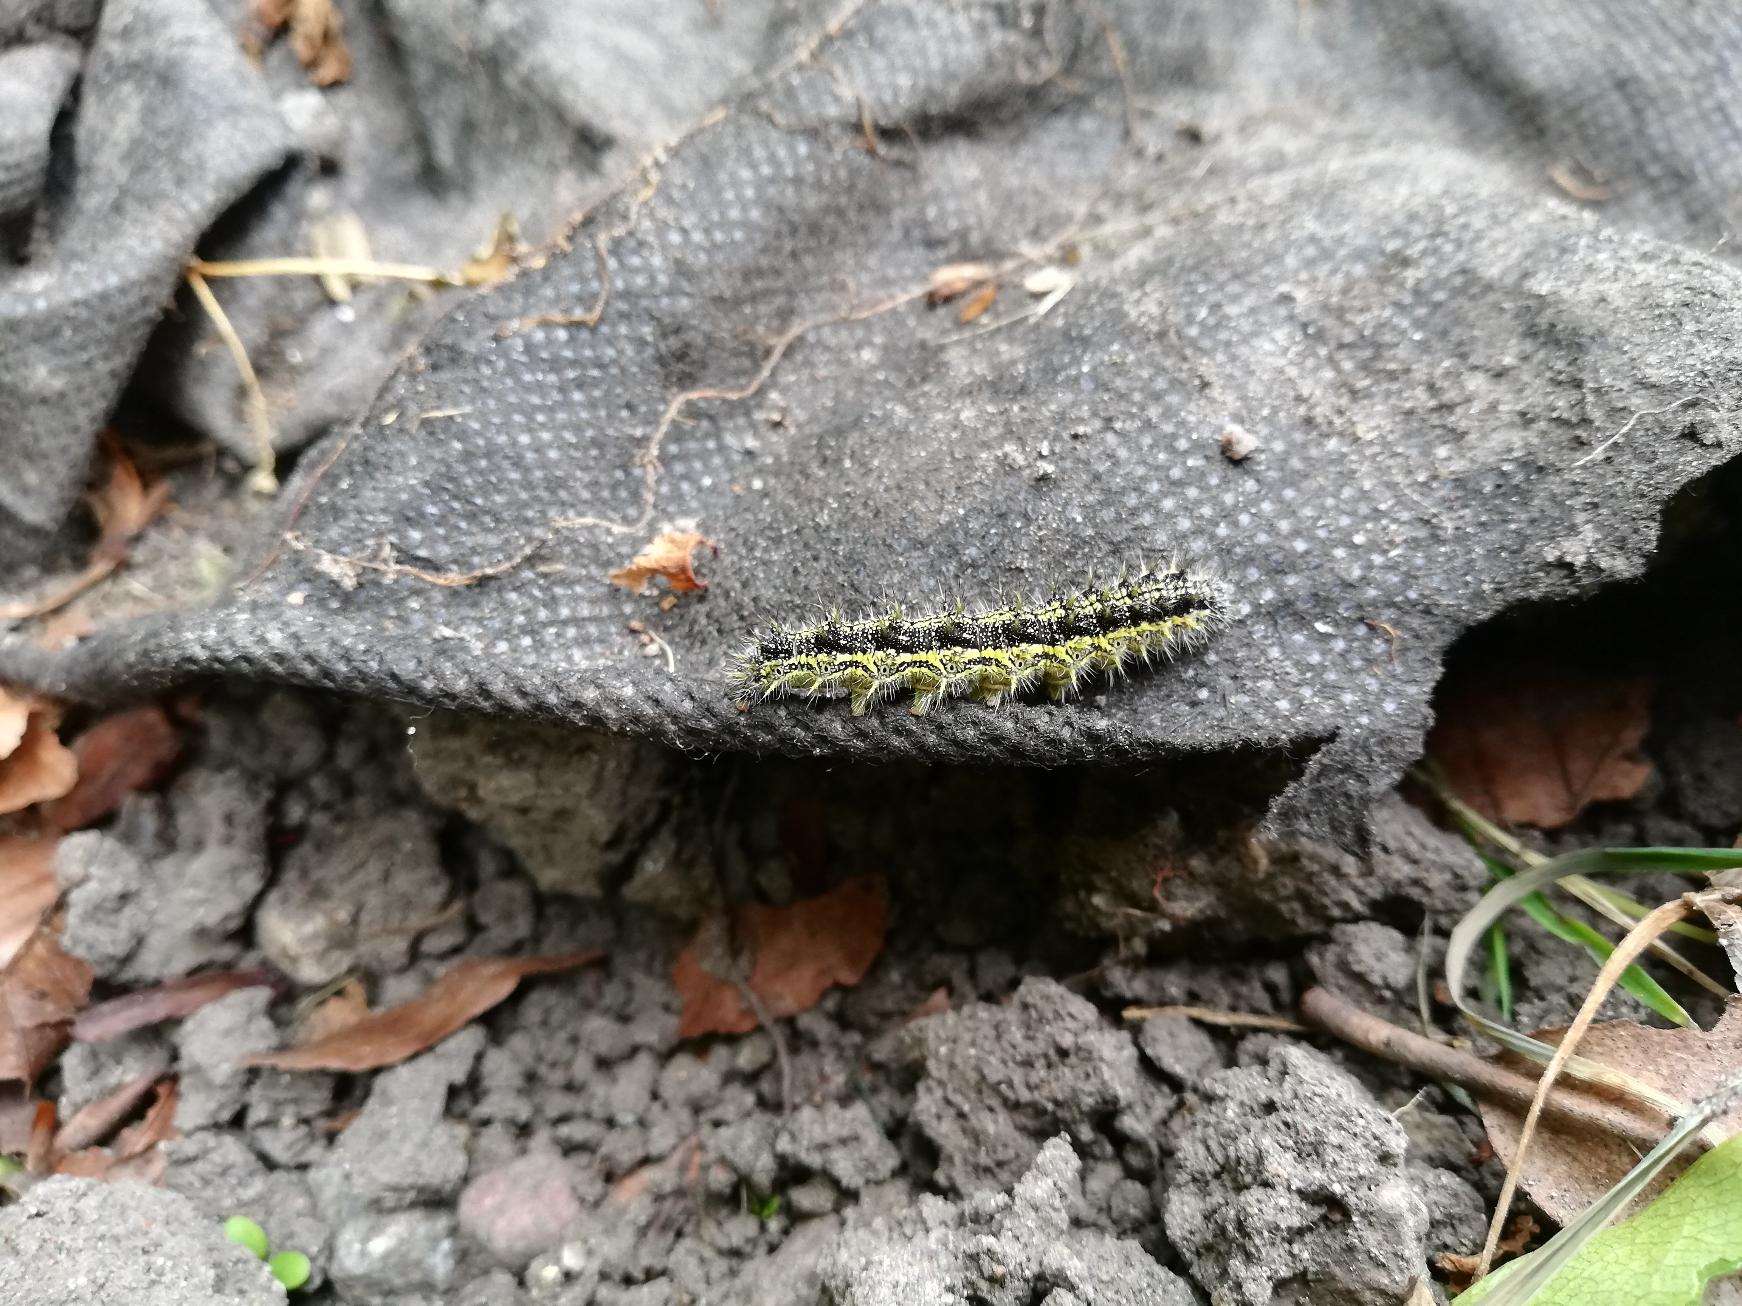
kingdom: Animalia
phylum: Arthropoda
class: Insecta
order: Lepidoptera
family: Nymphalidae
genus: Aglais
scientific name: Aglais urticae
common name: Nældens takvinge
